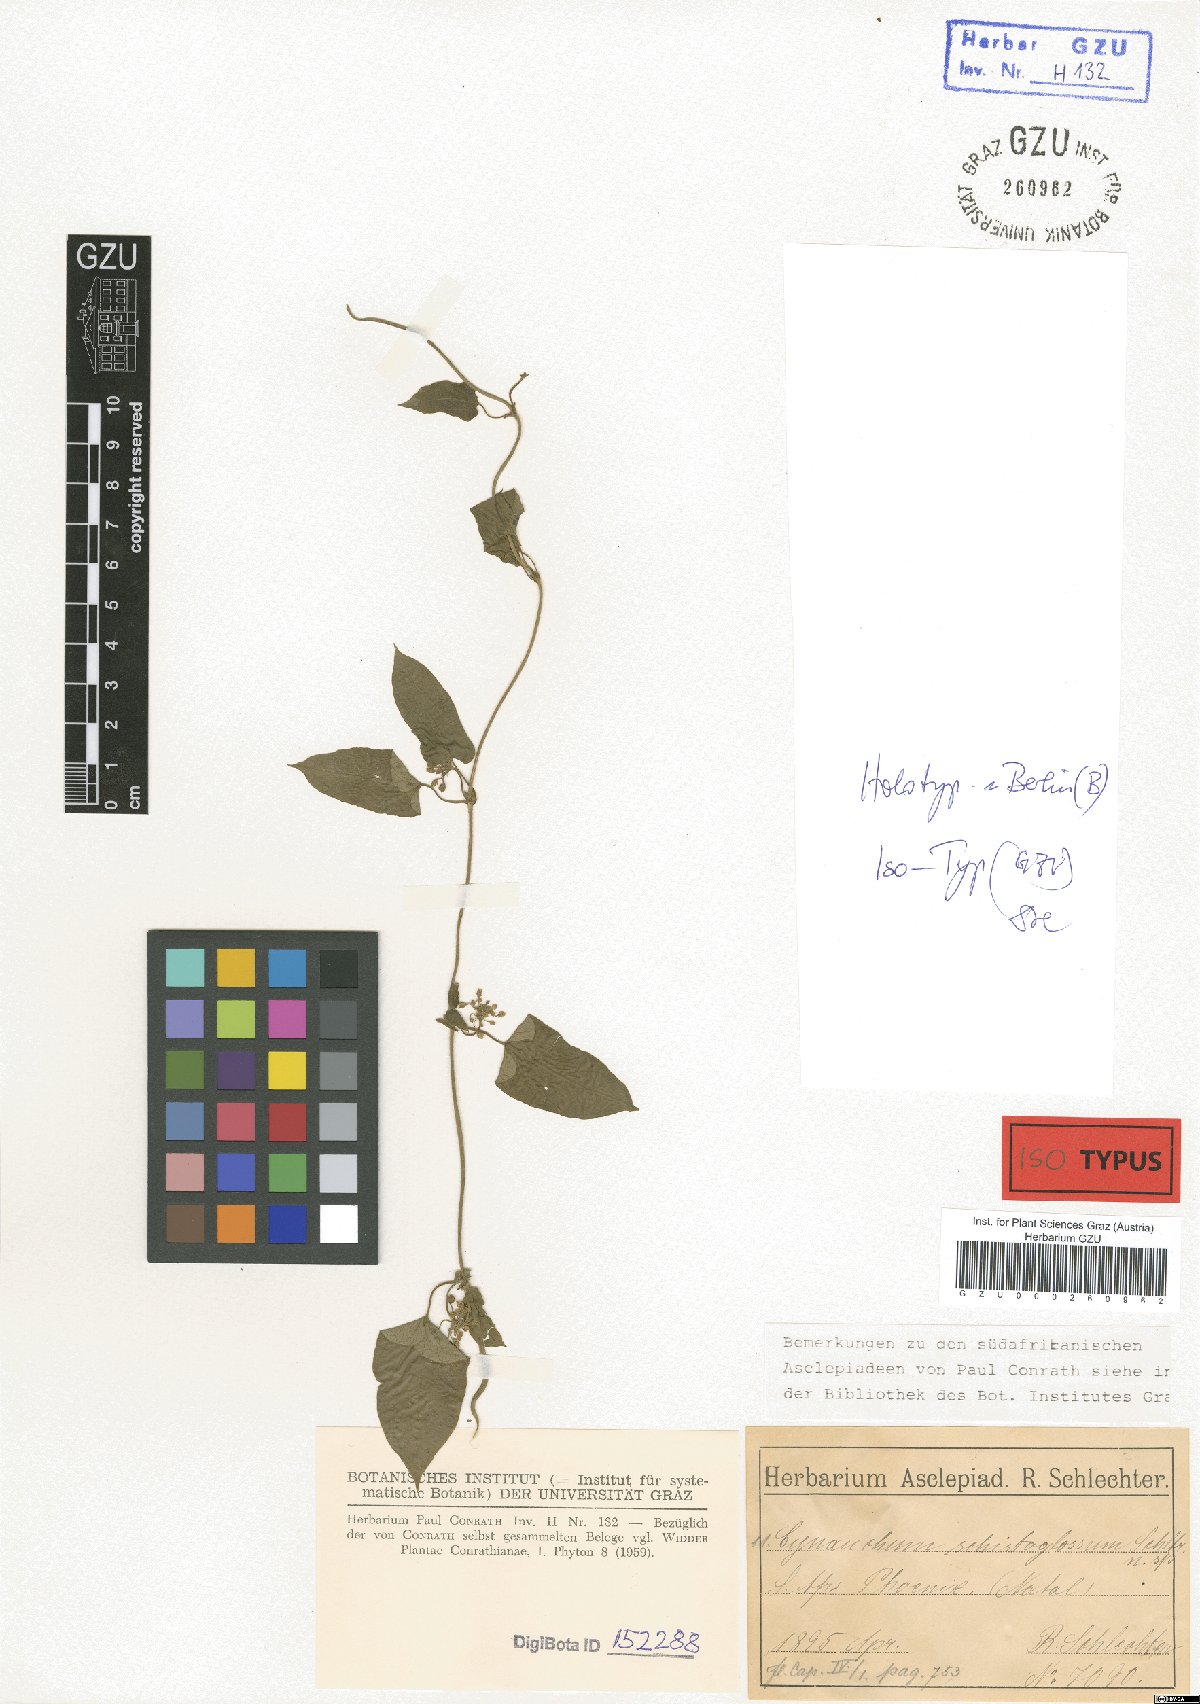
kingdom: Plantae
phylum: Tracheophyta
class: Magnoliopsida
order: Gentianales
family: Apocynaceae
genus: Cynanchum
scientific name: Cynanchum schistoglossum
